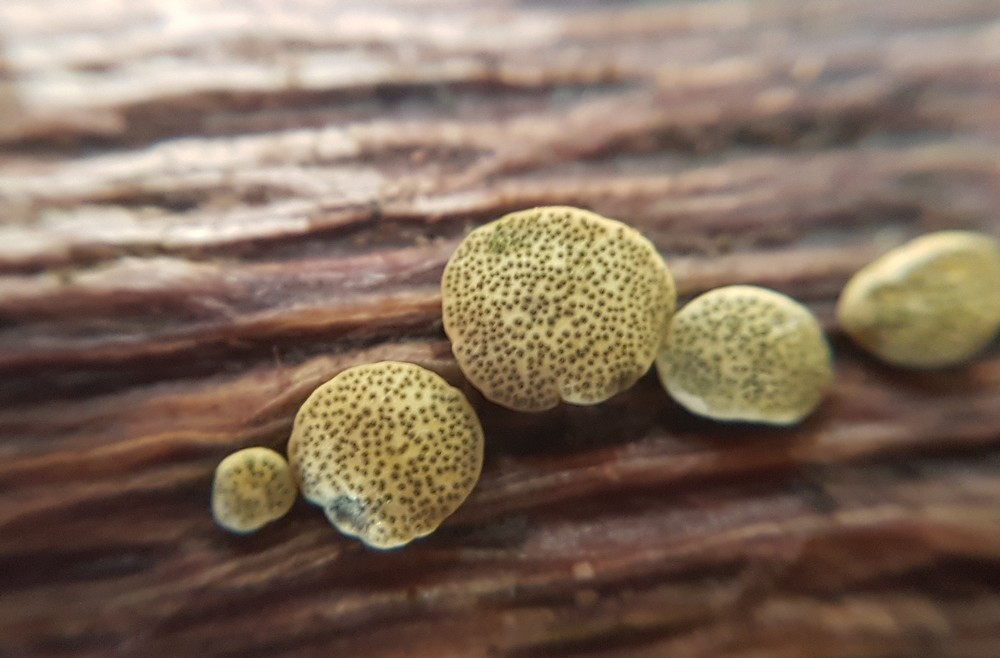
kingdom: Fungi
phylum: Ascomycota
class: Sordariomycetes
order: Hypocreales
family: Hypocreaceae
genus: Trichoderma
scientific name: Trichoderma aureoviride
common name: æggegul kødkerne
